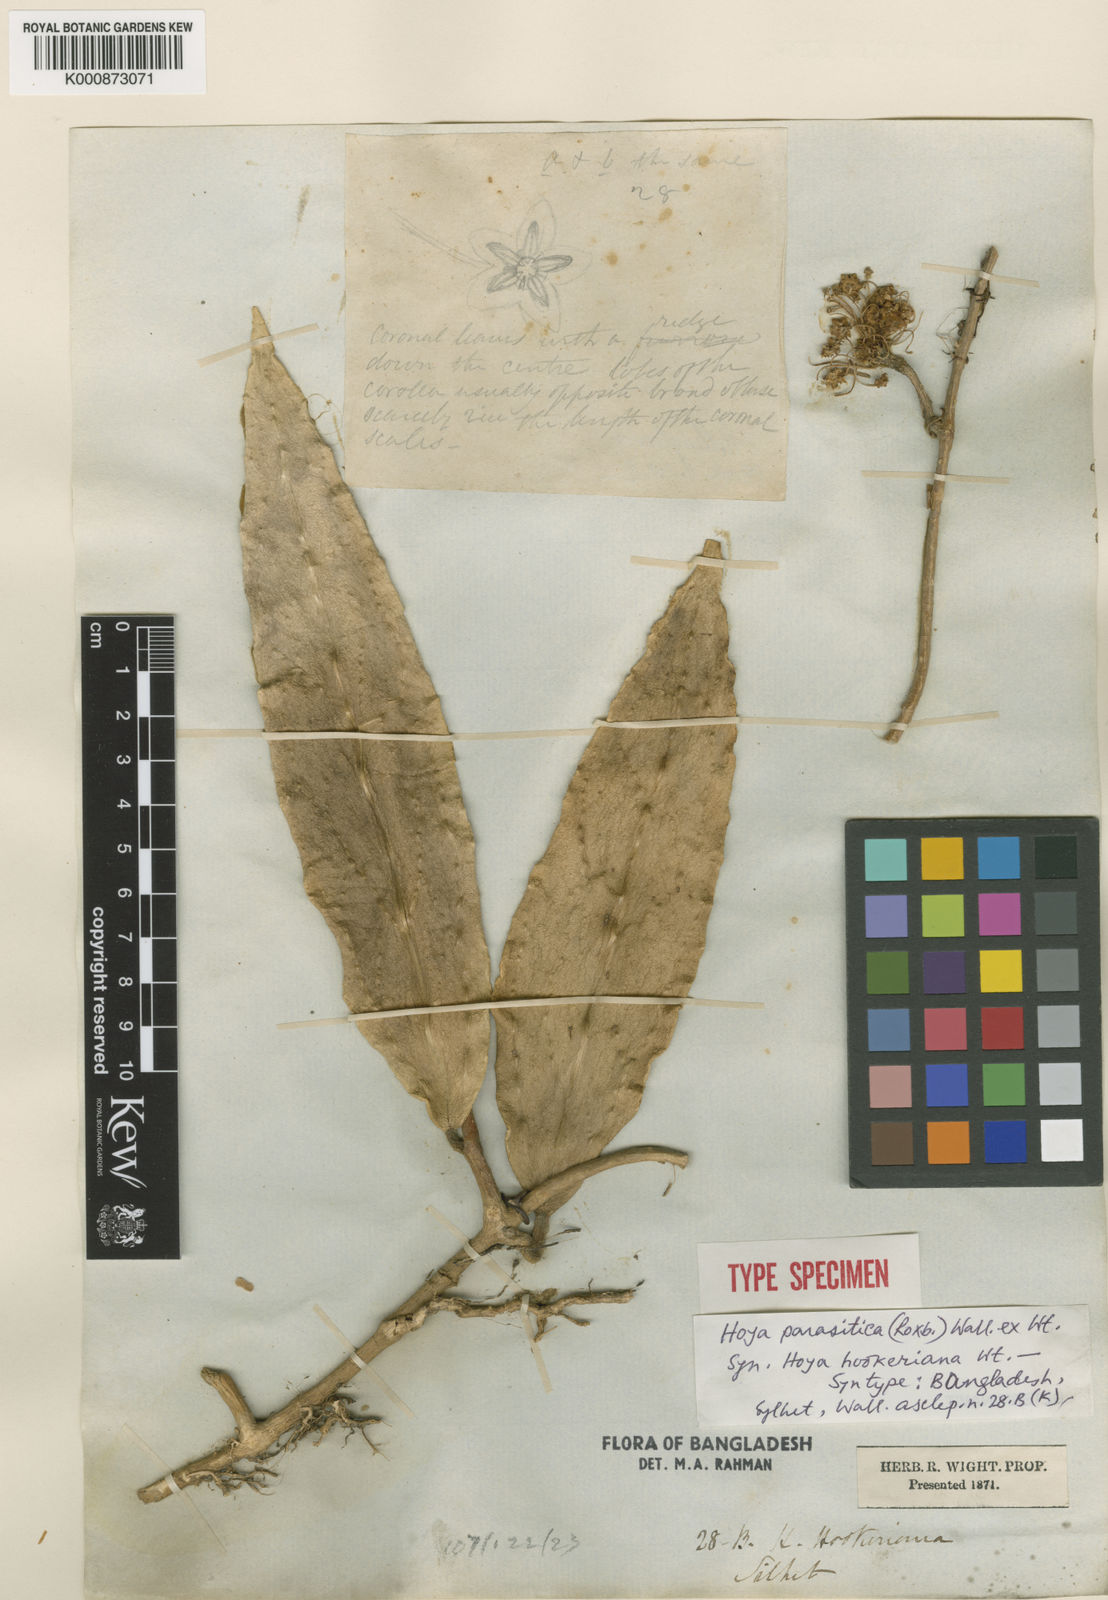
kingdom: Plantae
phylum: Tracheophyta
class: Magnoliopsida
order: Gentianales
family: Apocynaceae
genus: Hoya
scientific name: Hoya verticillata
